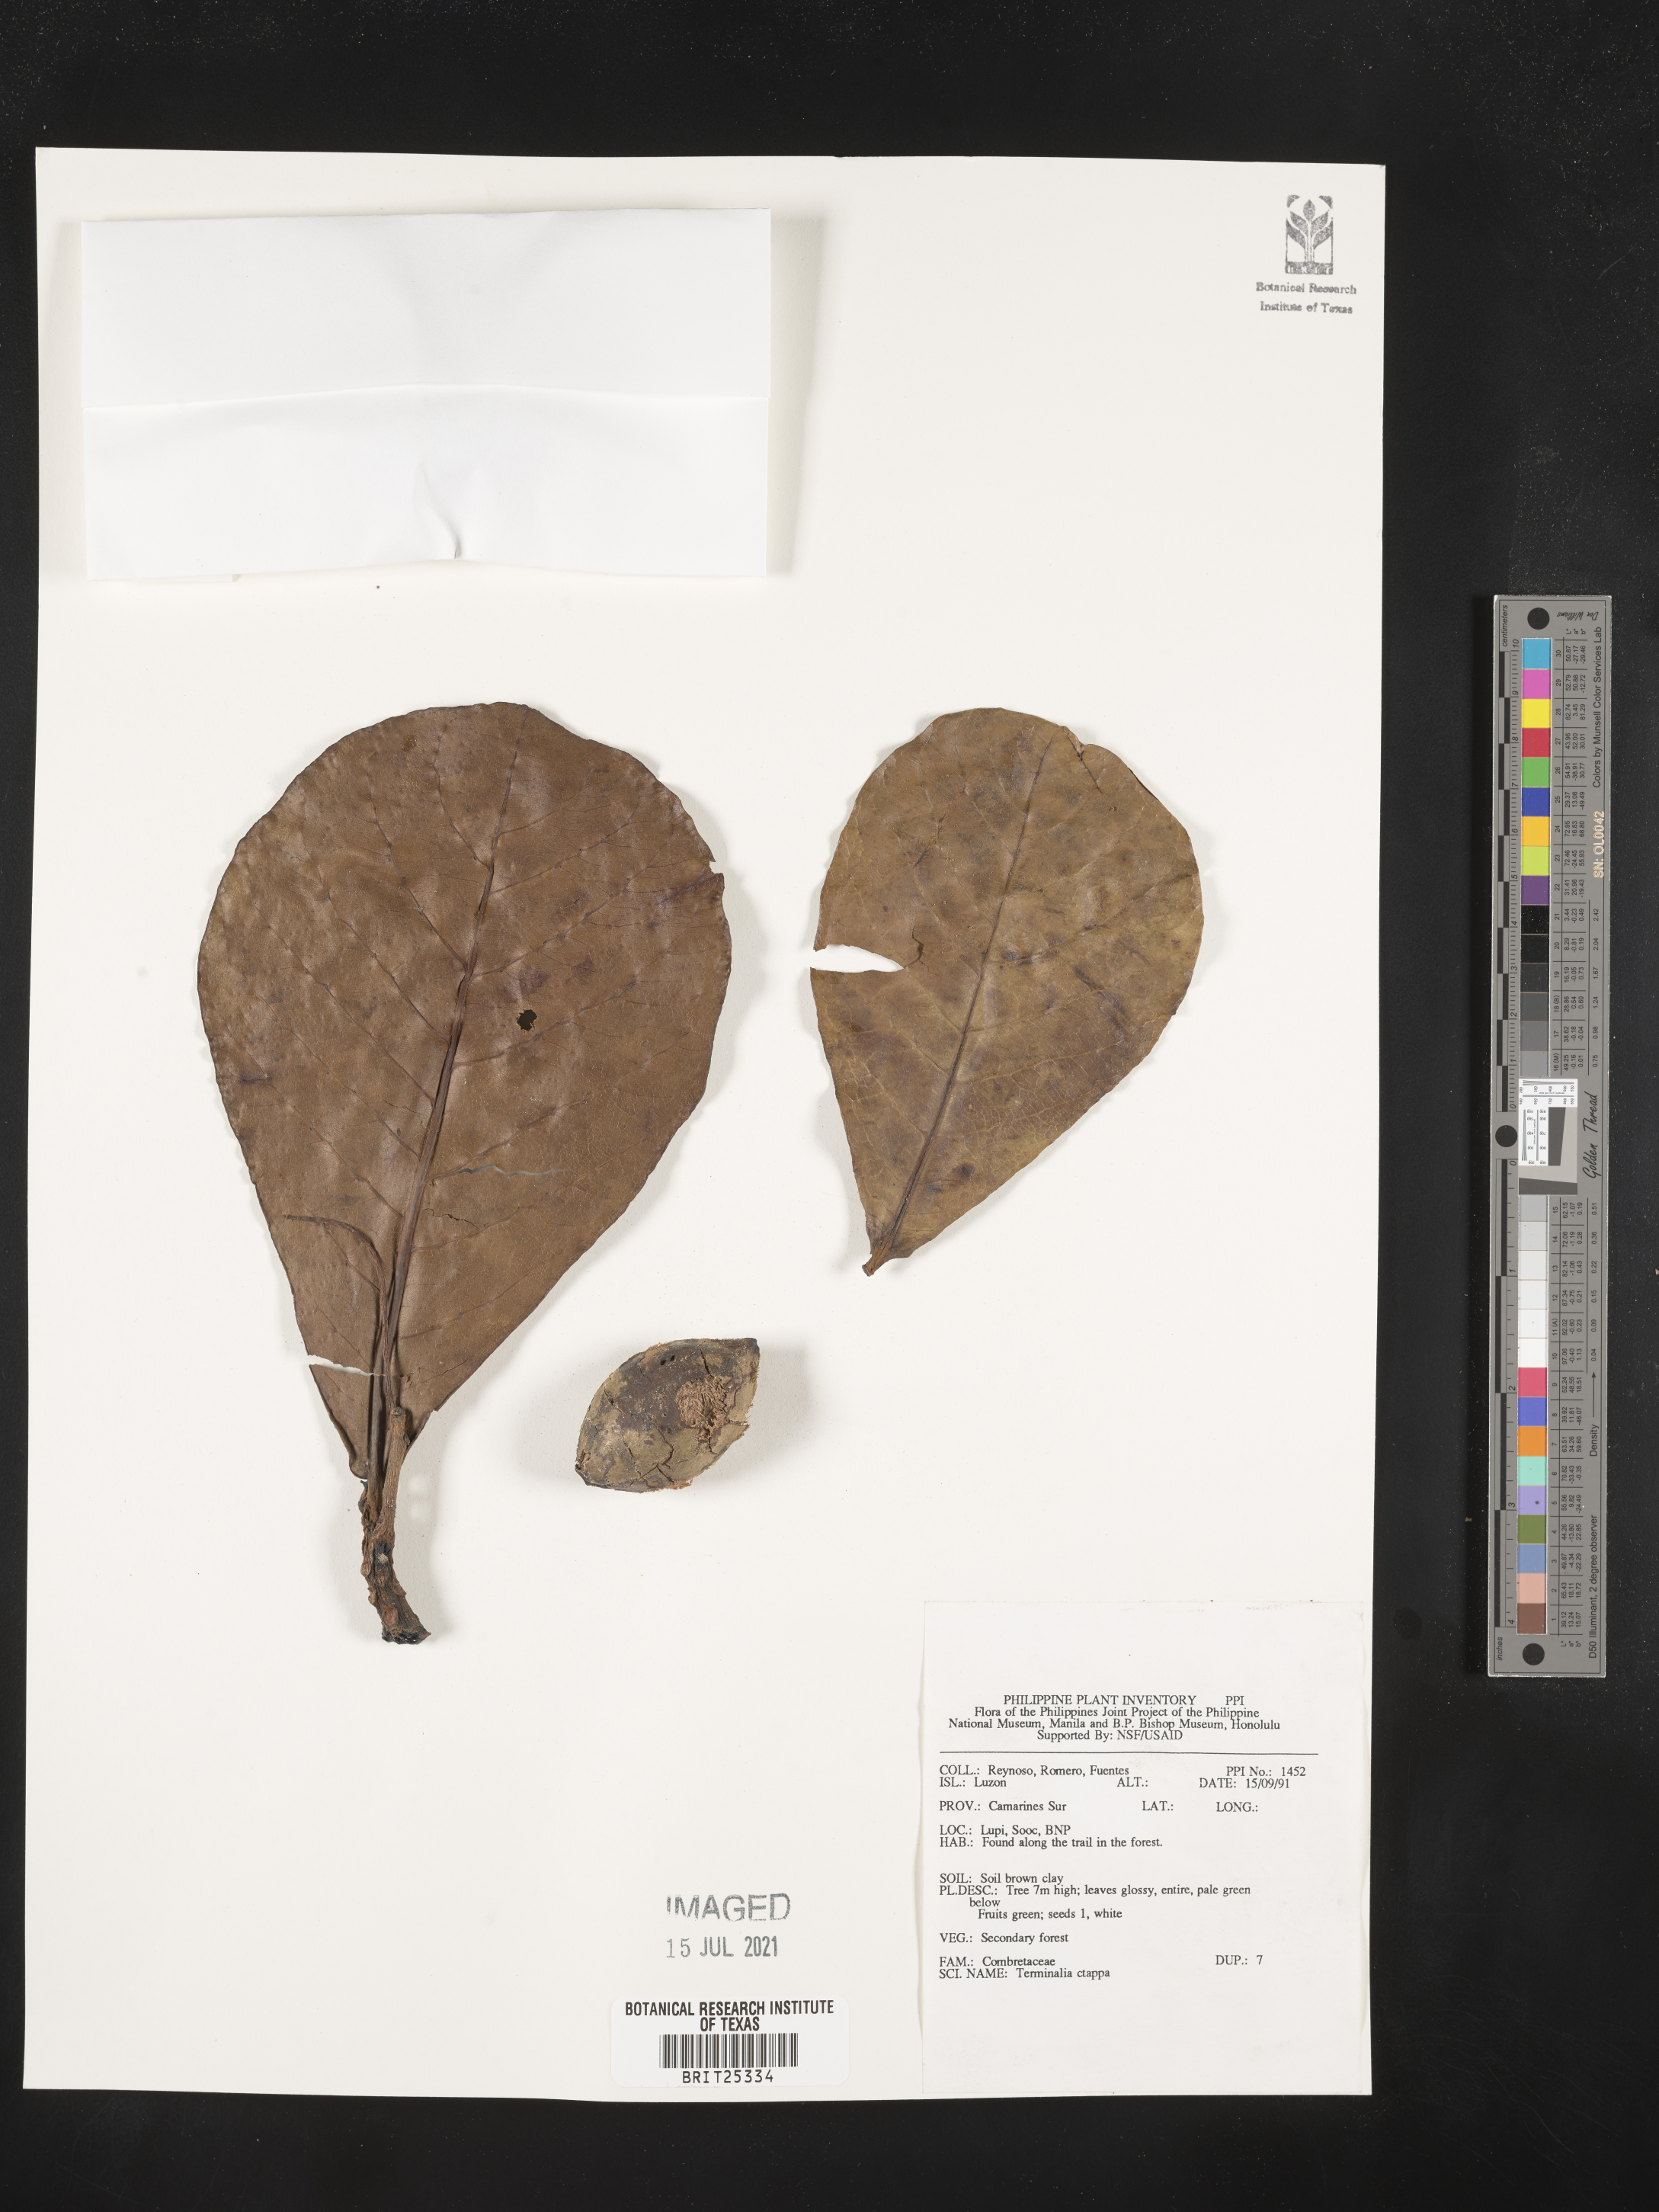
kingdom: Plantae
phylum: Tracheophyta
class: Magnoliopsida
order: Myrtales
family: Combretaceae
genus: Terminalia
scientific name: Terminalia catappa
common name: Tropical almond
